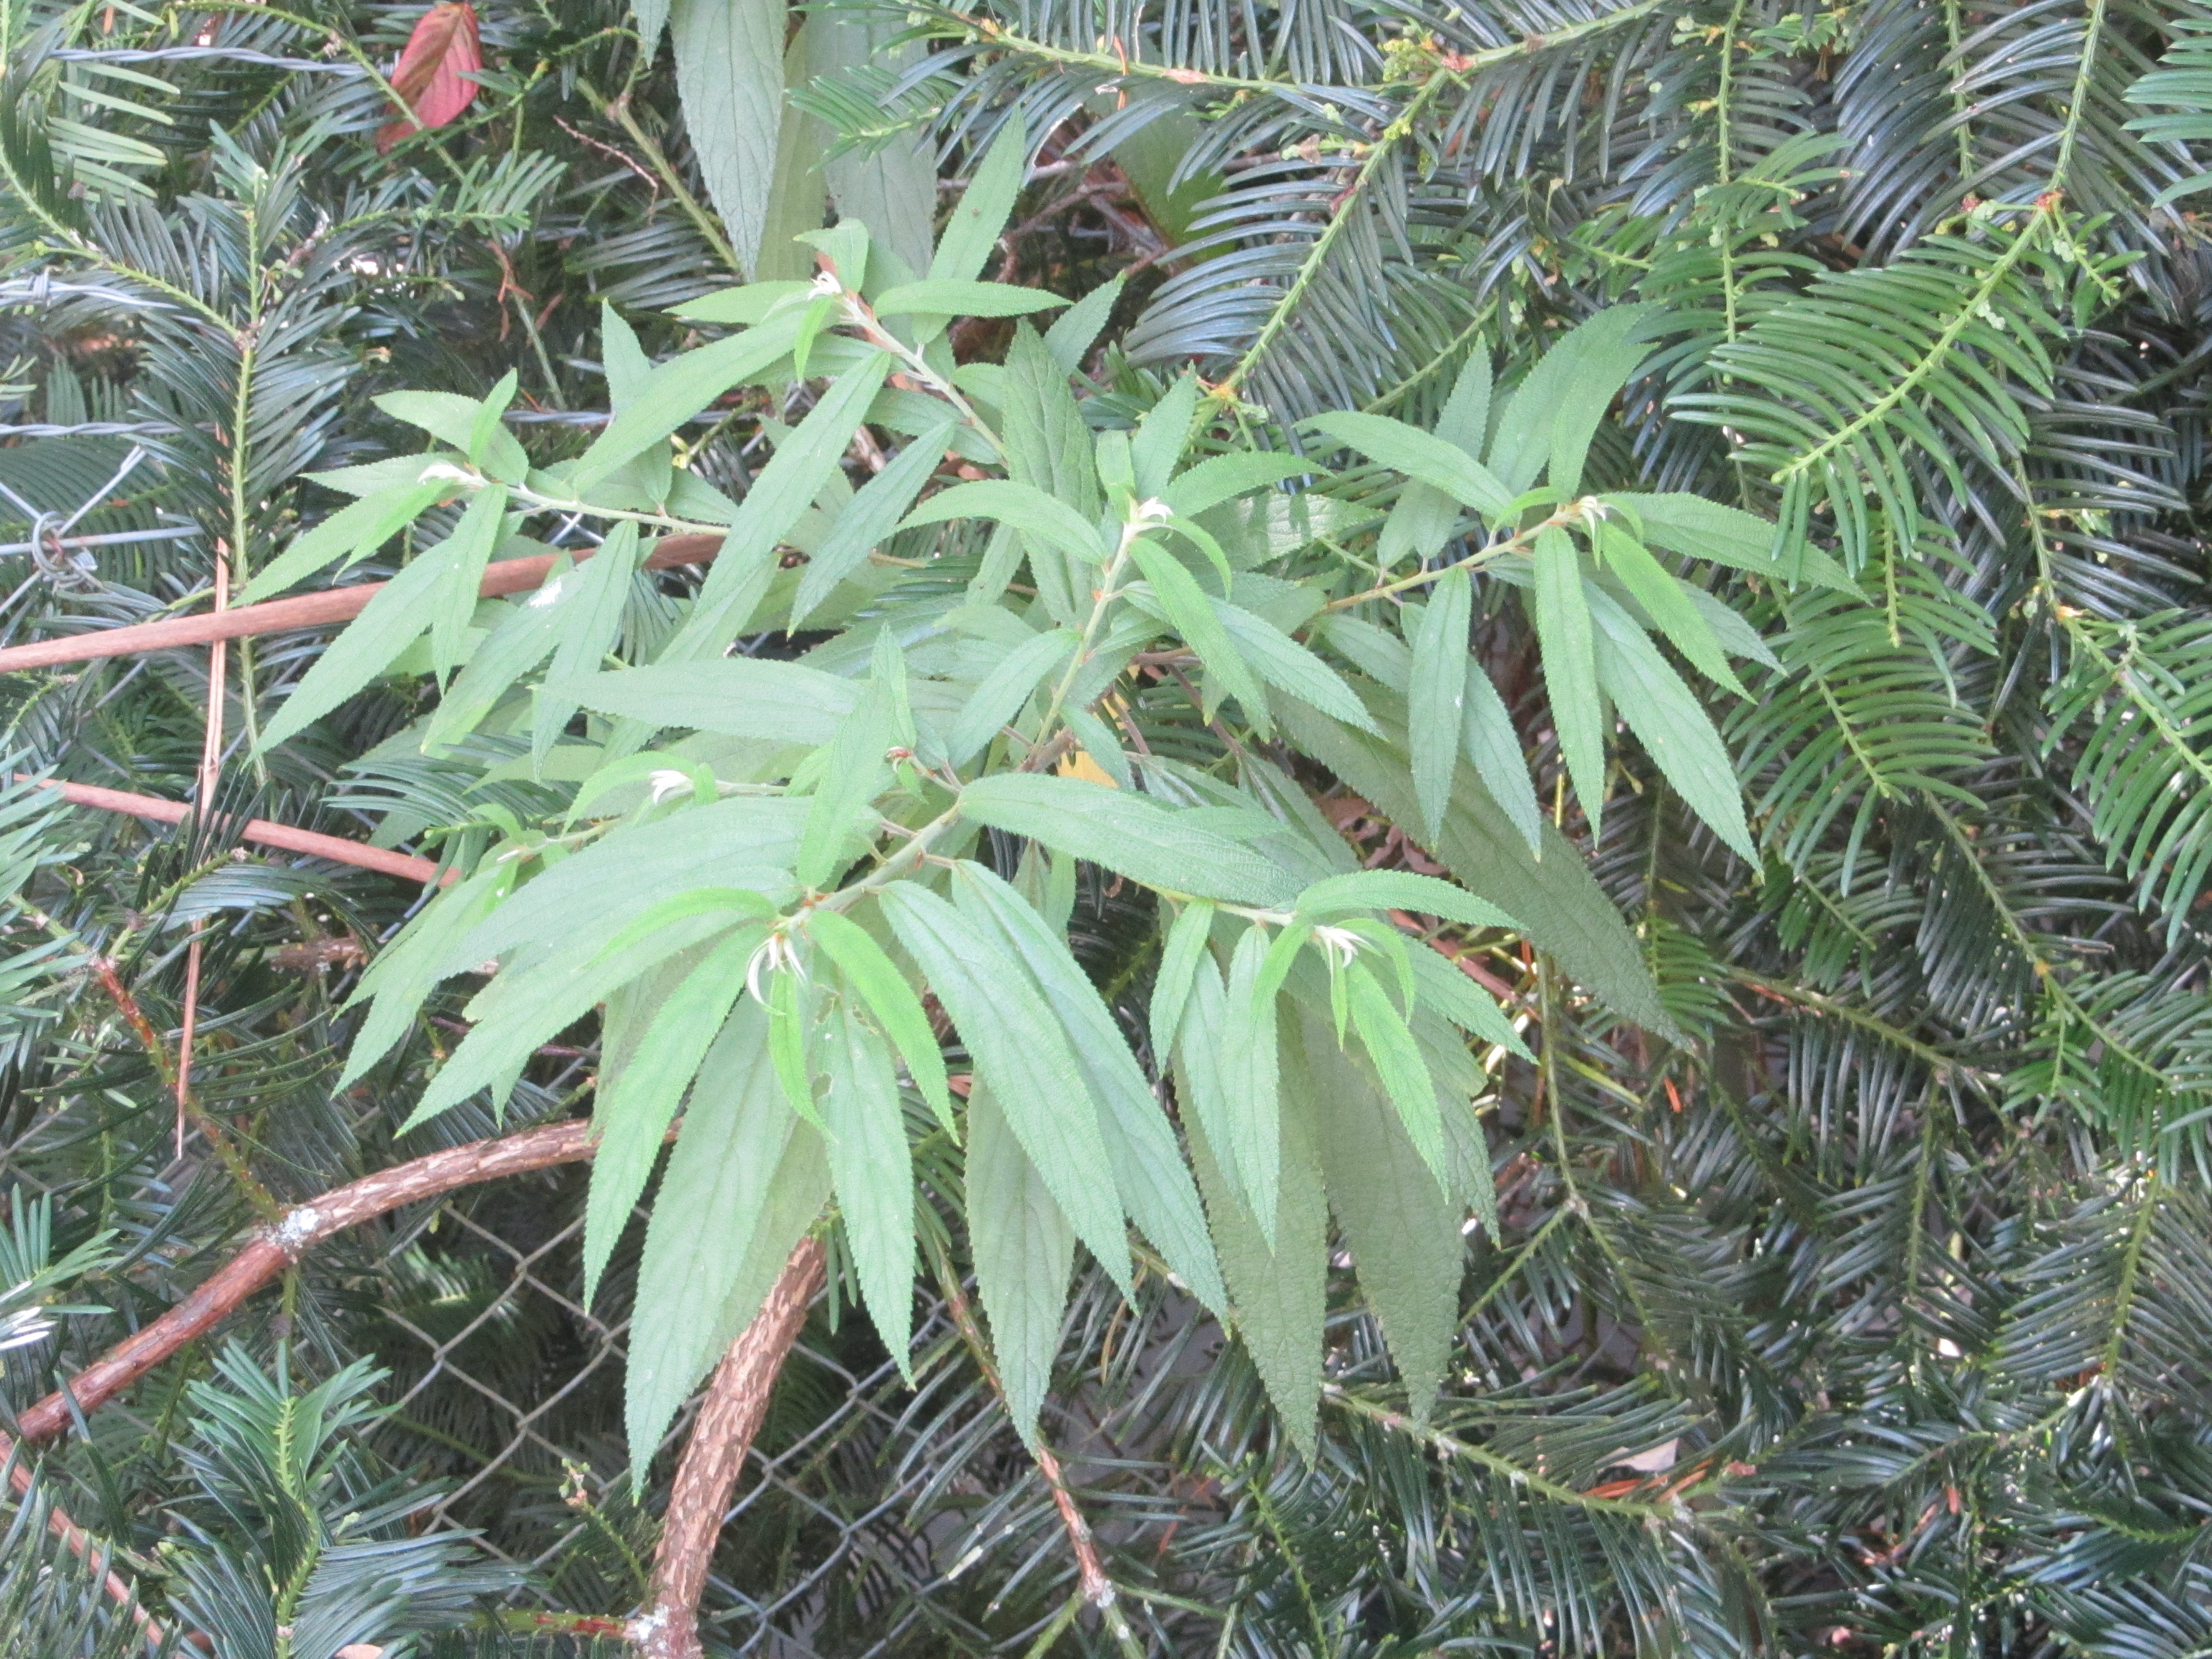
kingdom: Plantae
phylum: Tracheophyta
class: Magnoliopsida
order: Rosales
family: Urticaceae
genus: Debregeasia
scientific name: Debregeasia longifolia
